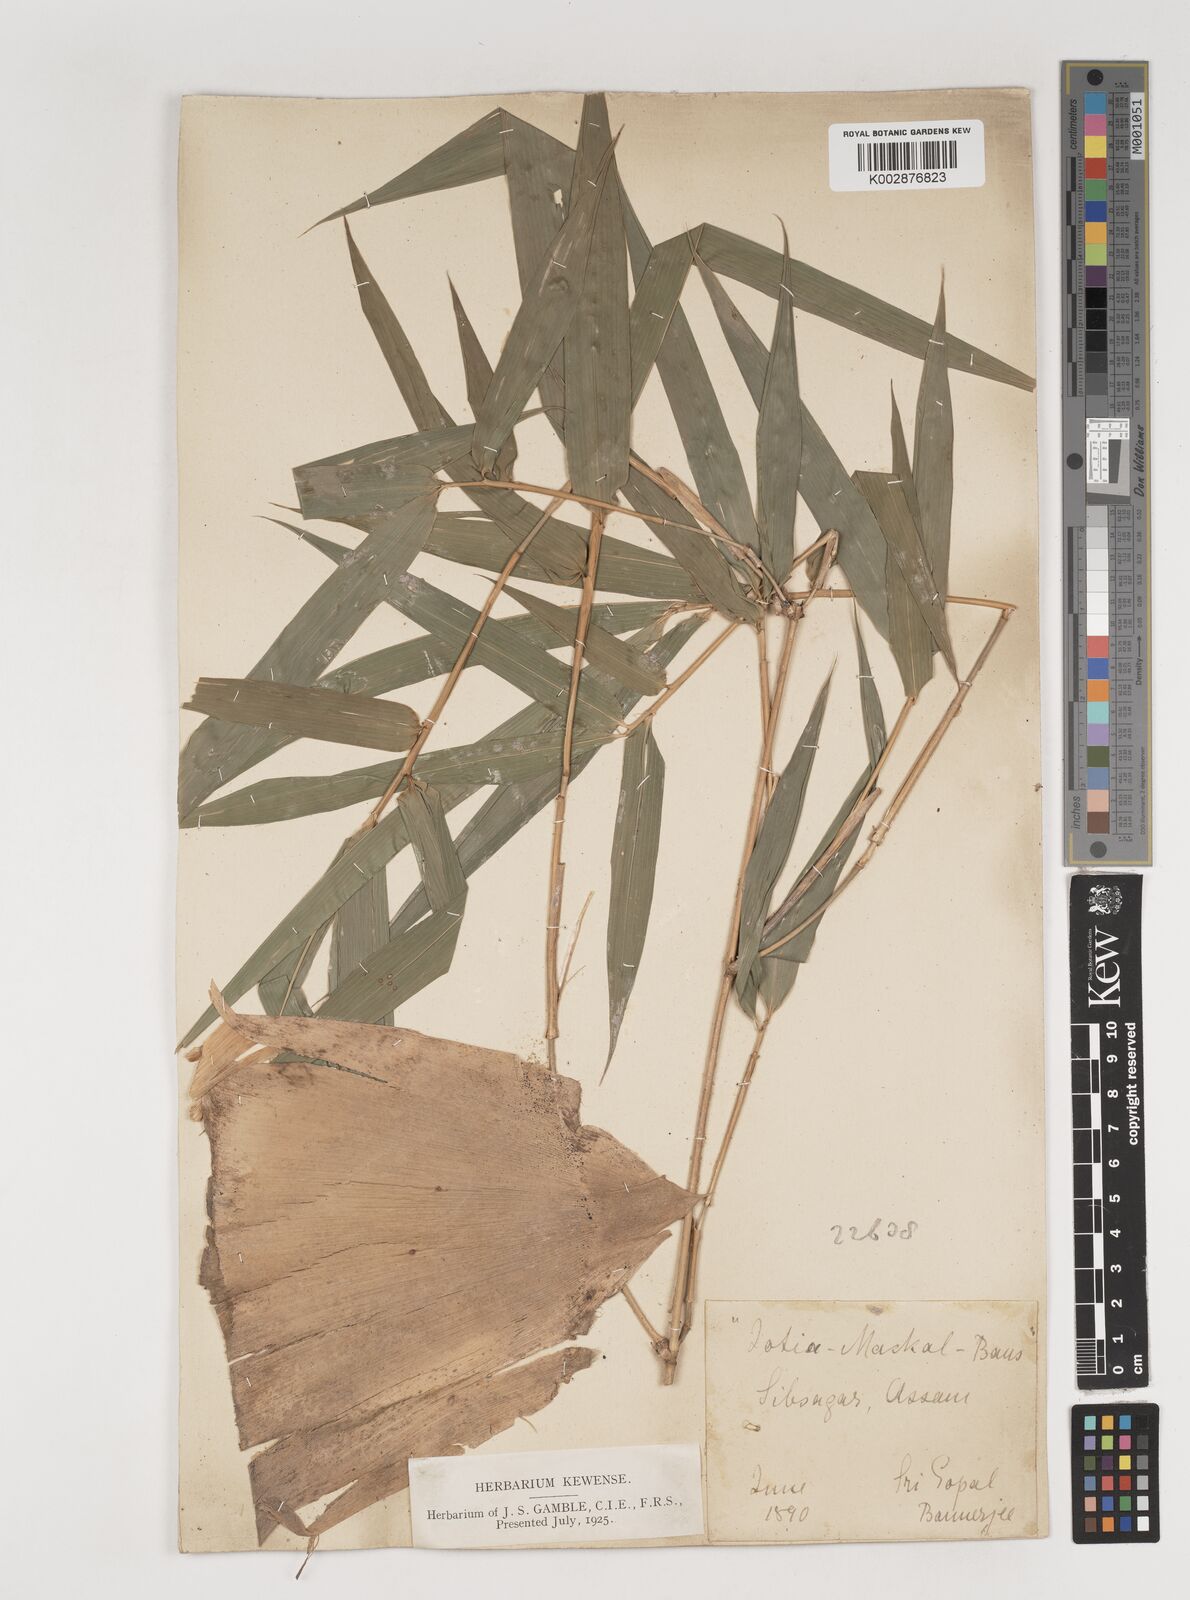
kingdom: Plantae
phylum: Tracheophyta
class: Liliopsida
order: Poales
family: Poaceae
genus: Bambusa
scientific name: Bambusa teres
